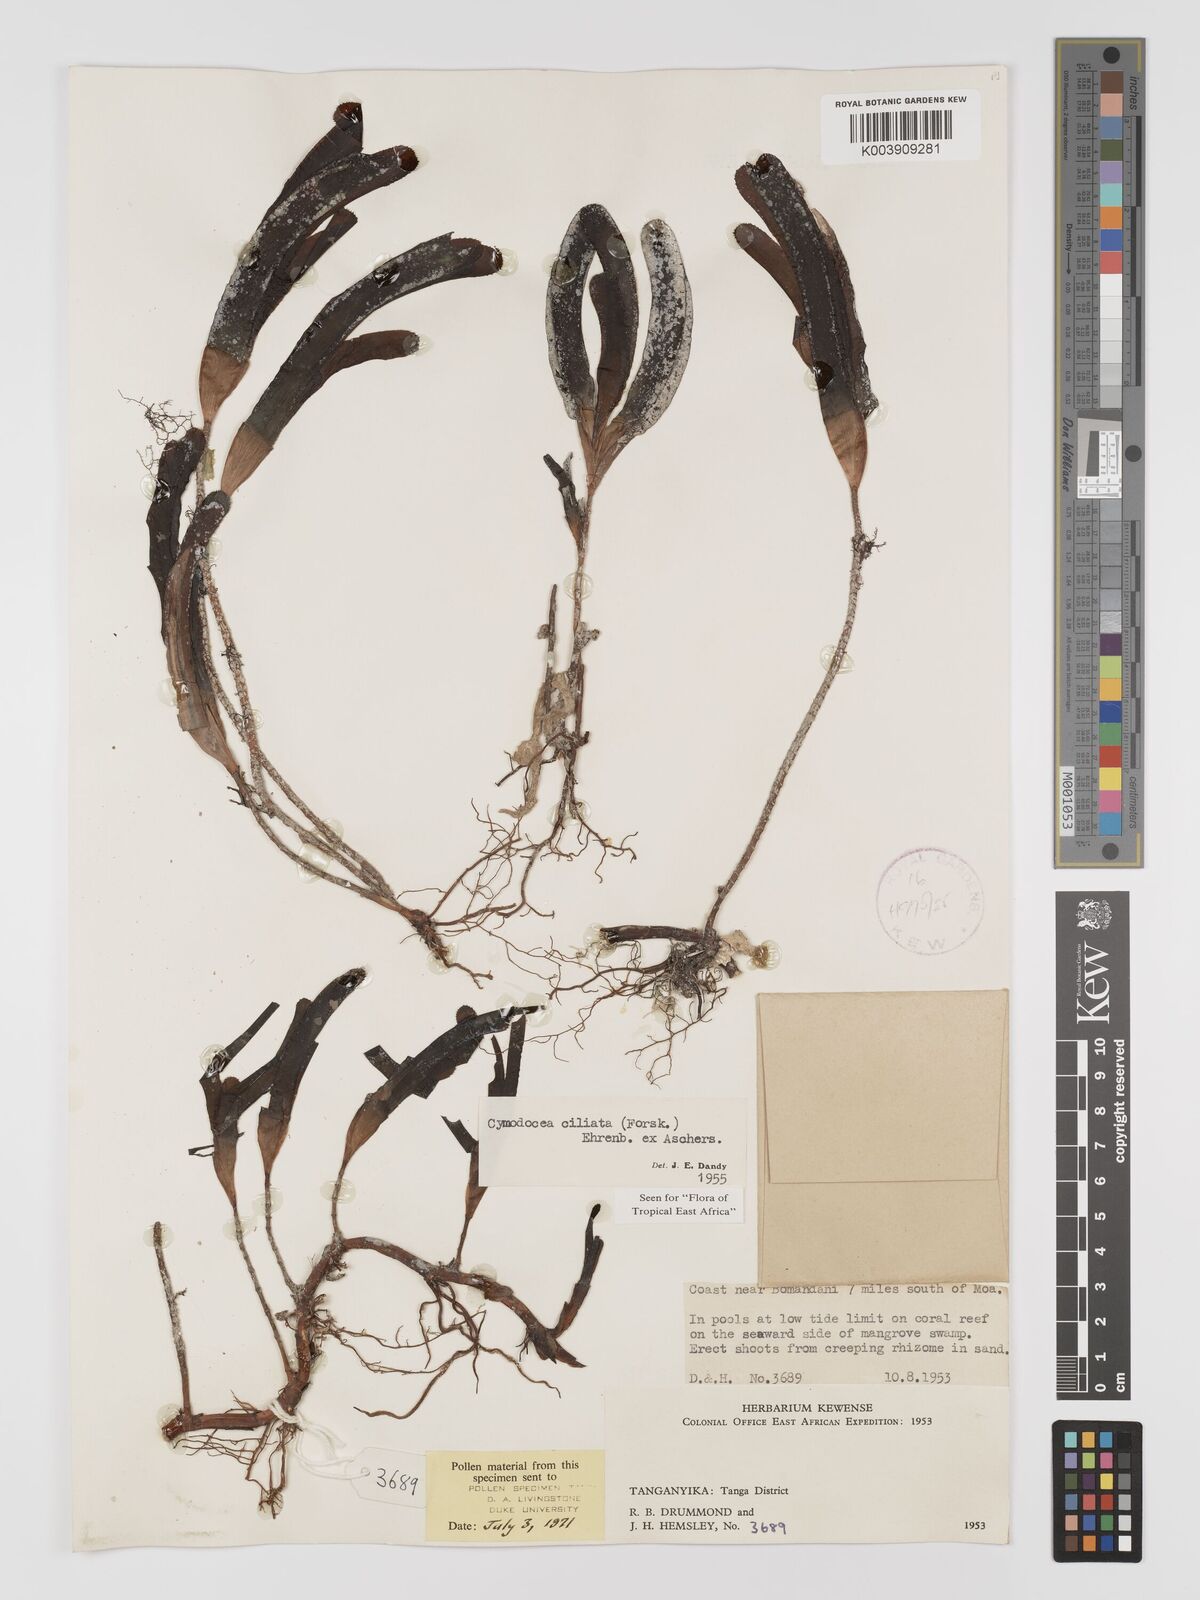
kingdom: Plantae
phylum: Tracheophyta
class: Liliopsida
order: Alismatales
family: Cymodoceaceae
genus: Thalassodendron
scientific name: Thalassodendron ciliatum
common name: Species code: tc
